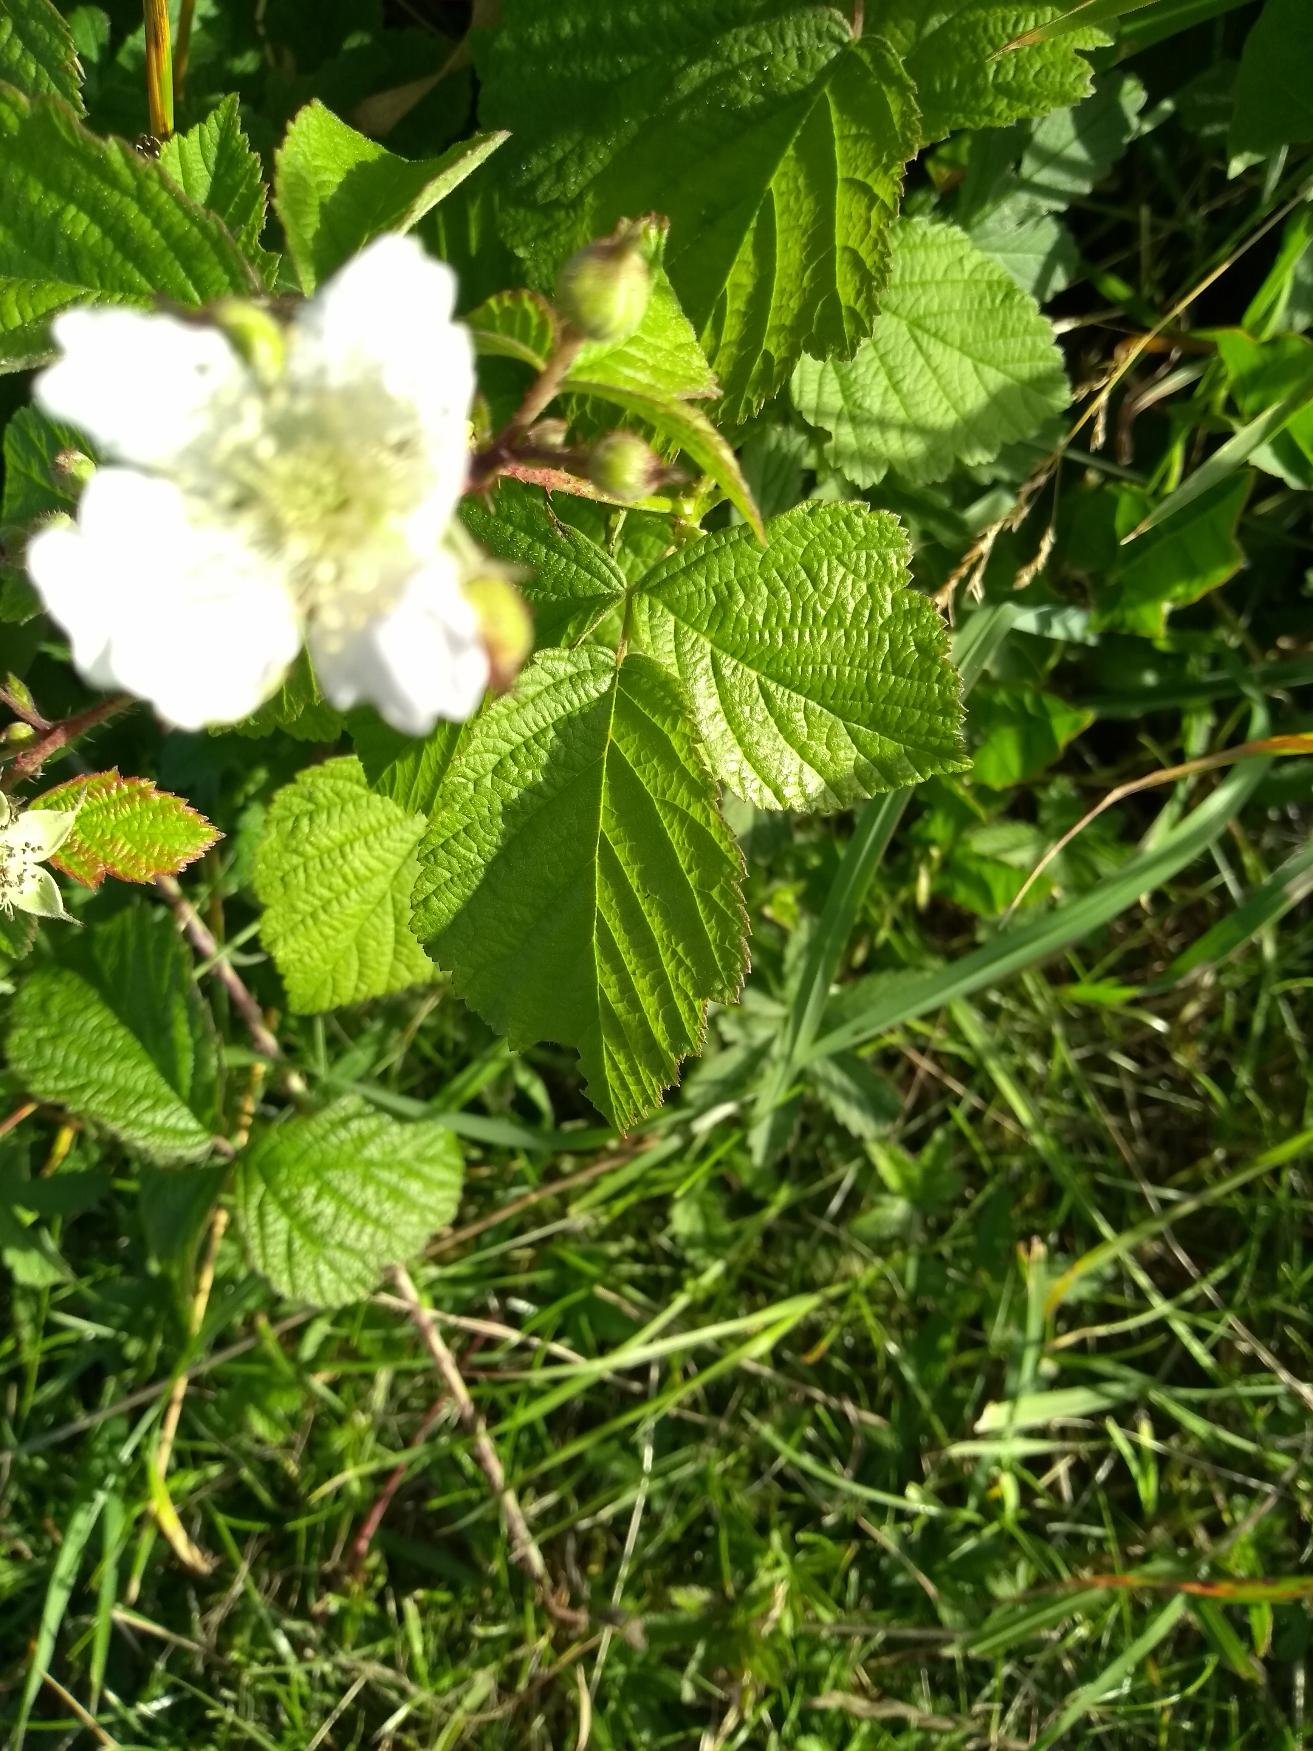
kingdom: Plantae
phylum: Tracheophyta
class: Magnoliopsida
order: Rosales
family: Rosaceae
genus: Rubus
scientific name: Rubus caesius
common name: Korbær
